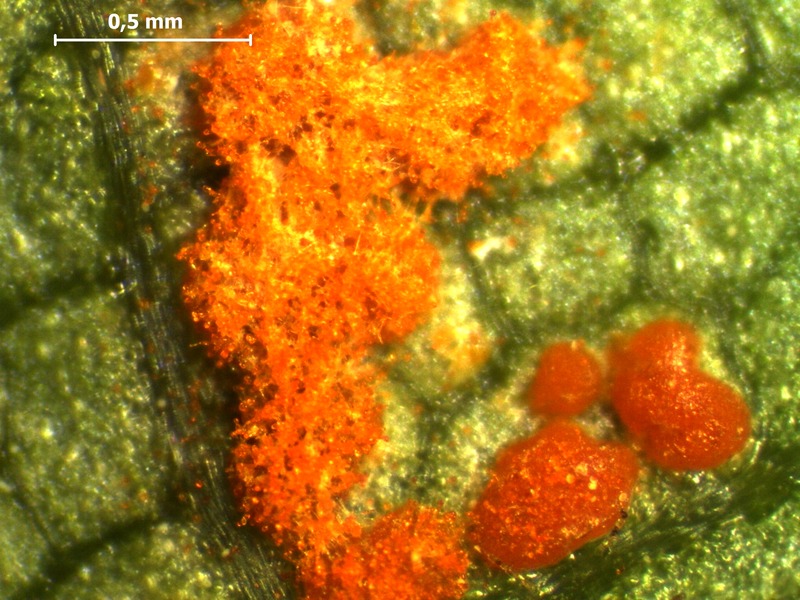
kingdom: Fungi
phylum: Basidiomycota
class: Pucciniomycetes
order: Pucciniales
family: Coleosporiaceae
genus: Coleosporium
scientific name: Coleosporium tussilaginis
